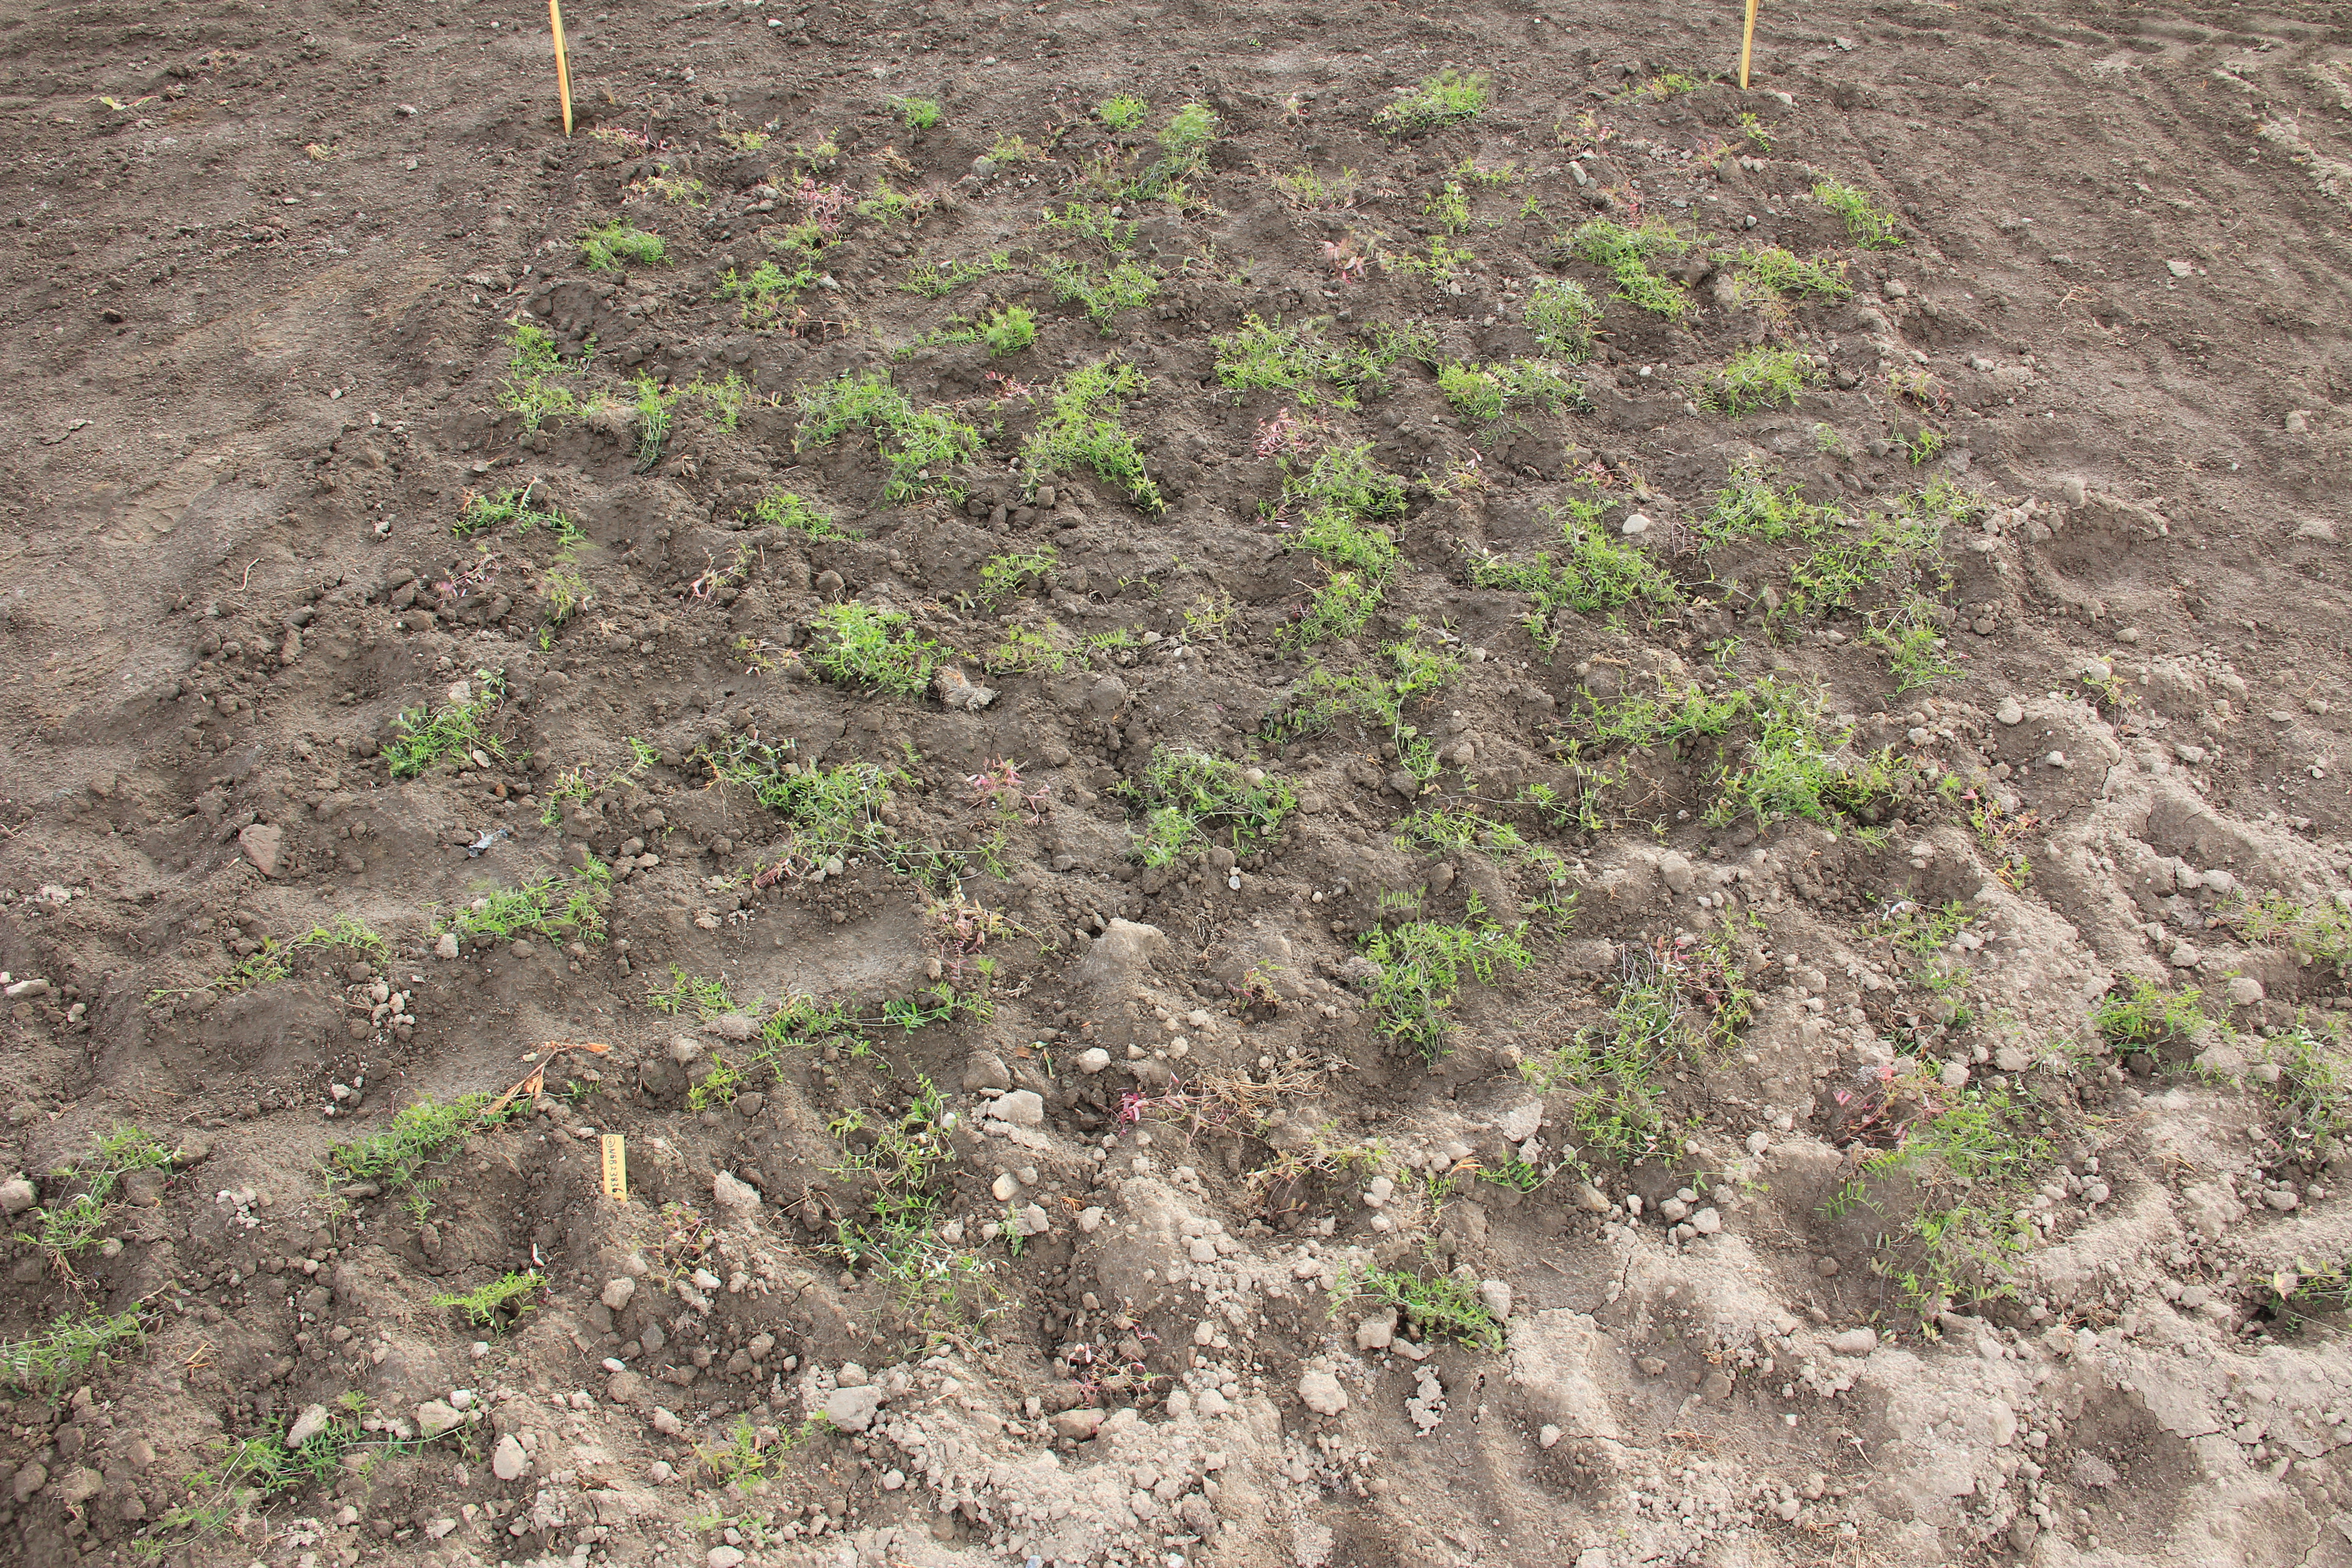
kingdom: Plantae
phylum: Tracheophyta
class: Magnoliopsida
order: Fabales
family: Fabaceae
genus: Vicia
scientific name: Vicia hirsuta
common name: Tiny vetch
